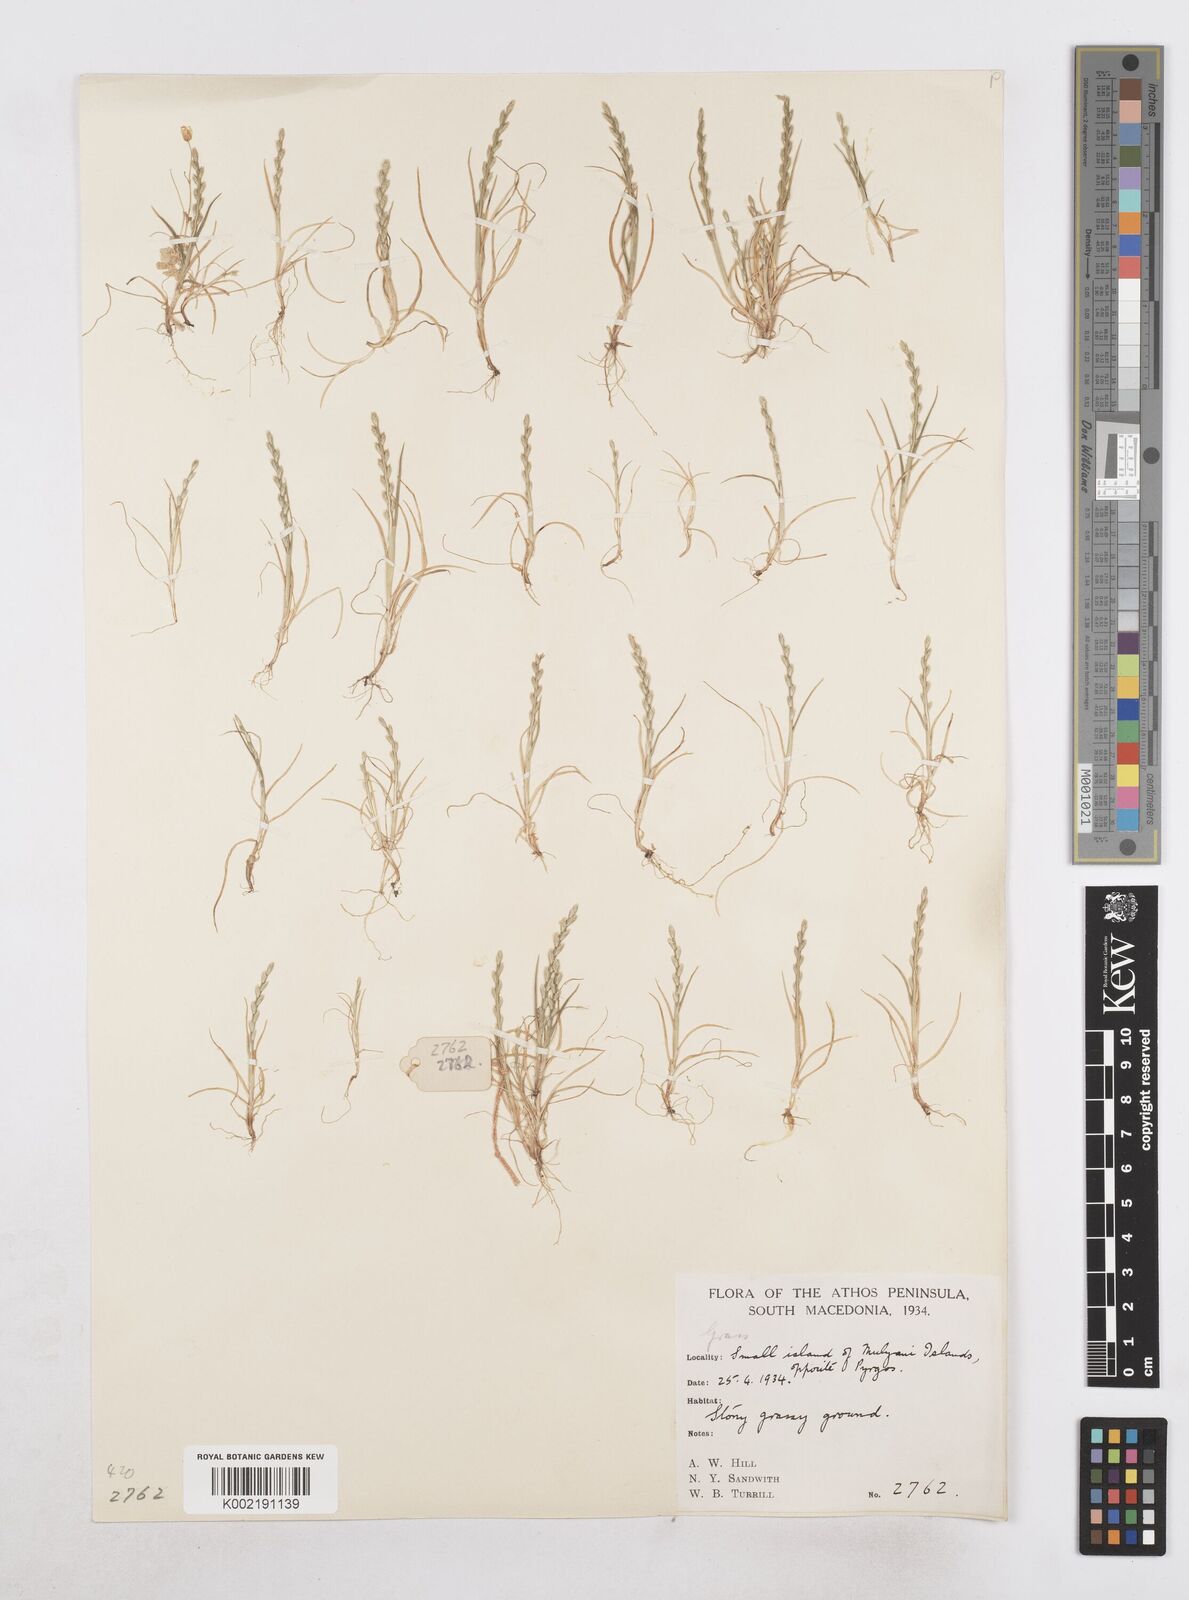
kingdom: Plantae
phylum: Tracheophyta
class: Liliopsida
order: Poales
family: Poaceae
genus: Catapodium
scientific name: Catapodium marinum
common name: Sea fern-grass
